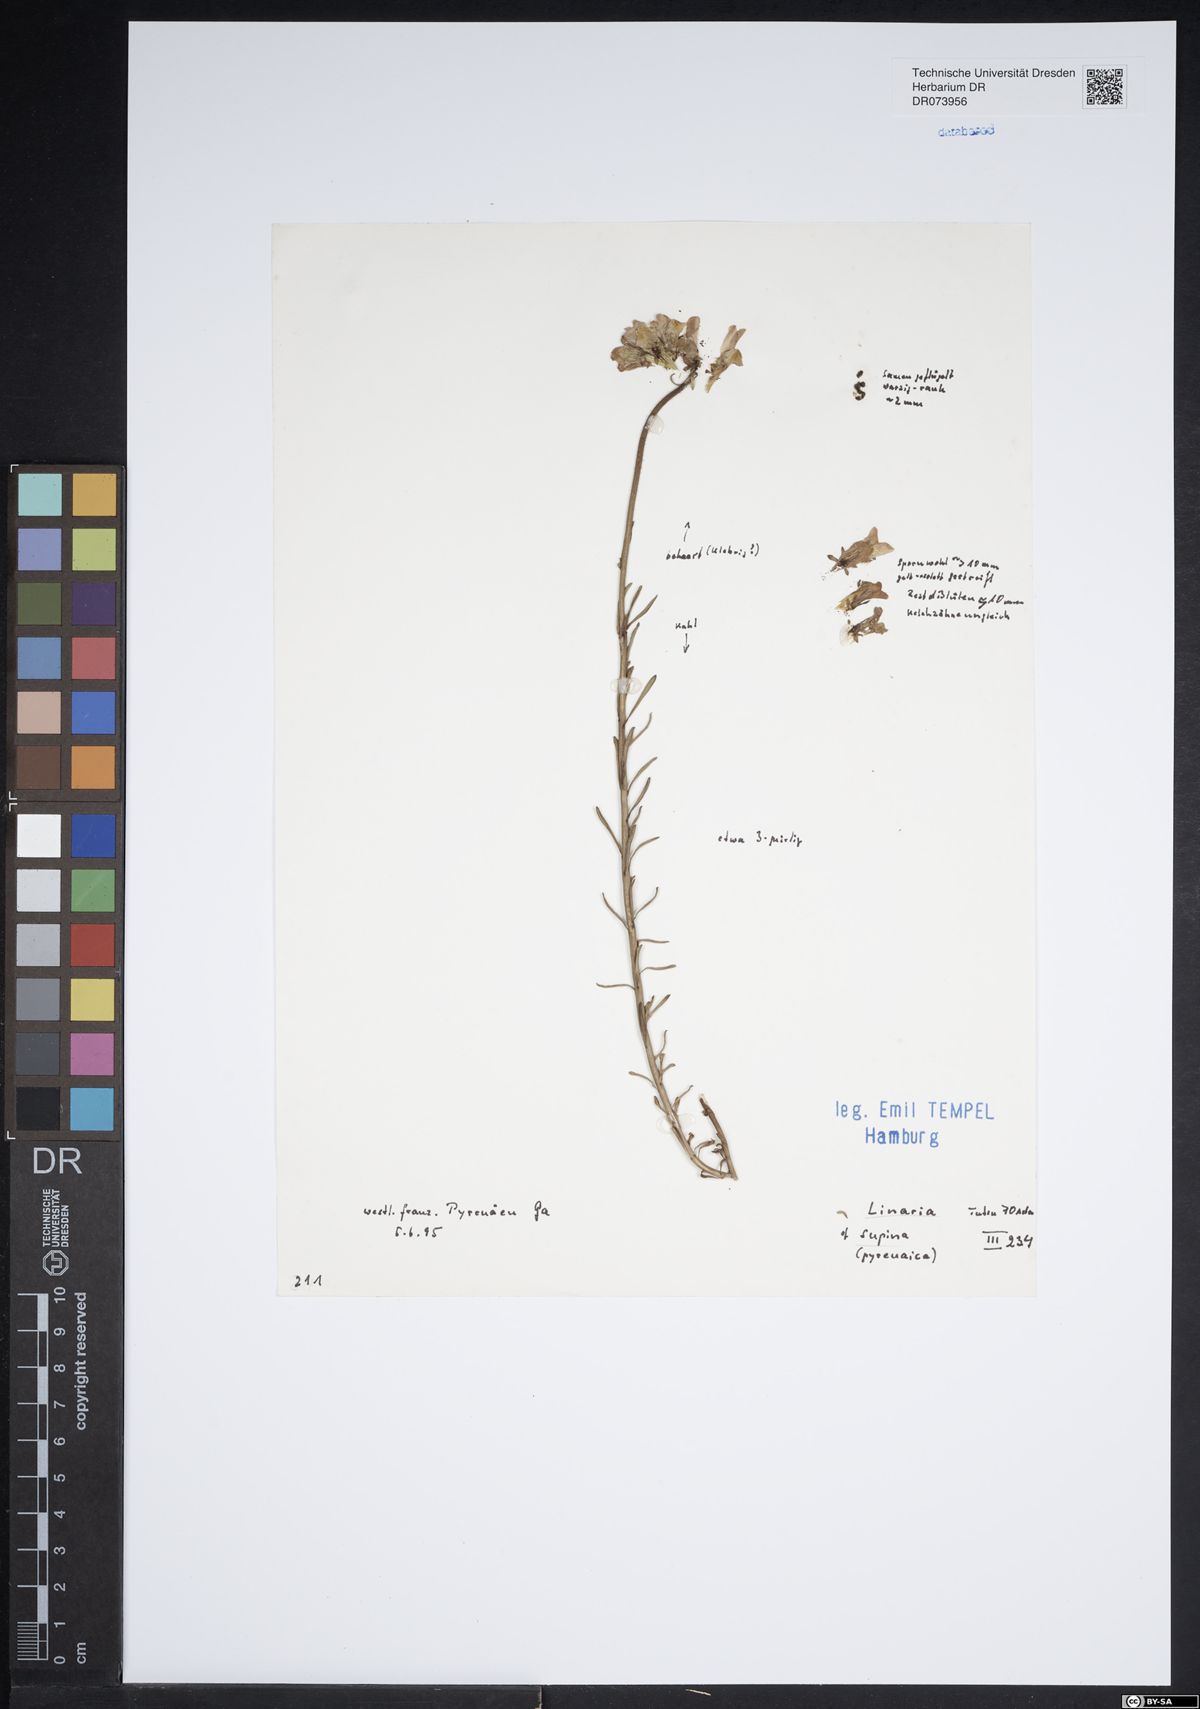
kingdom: Plantae
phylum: Tracheophyta
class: Magnoliopsida
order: Lamiales
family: Plantaginaceae
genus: Linaria
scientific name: Linaria supina
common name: Prostrate toadflax
